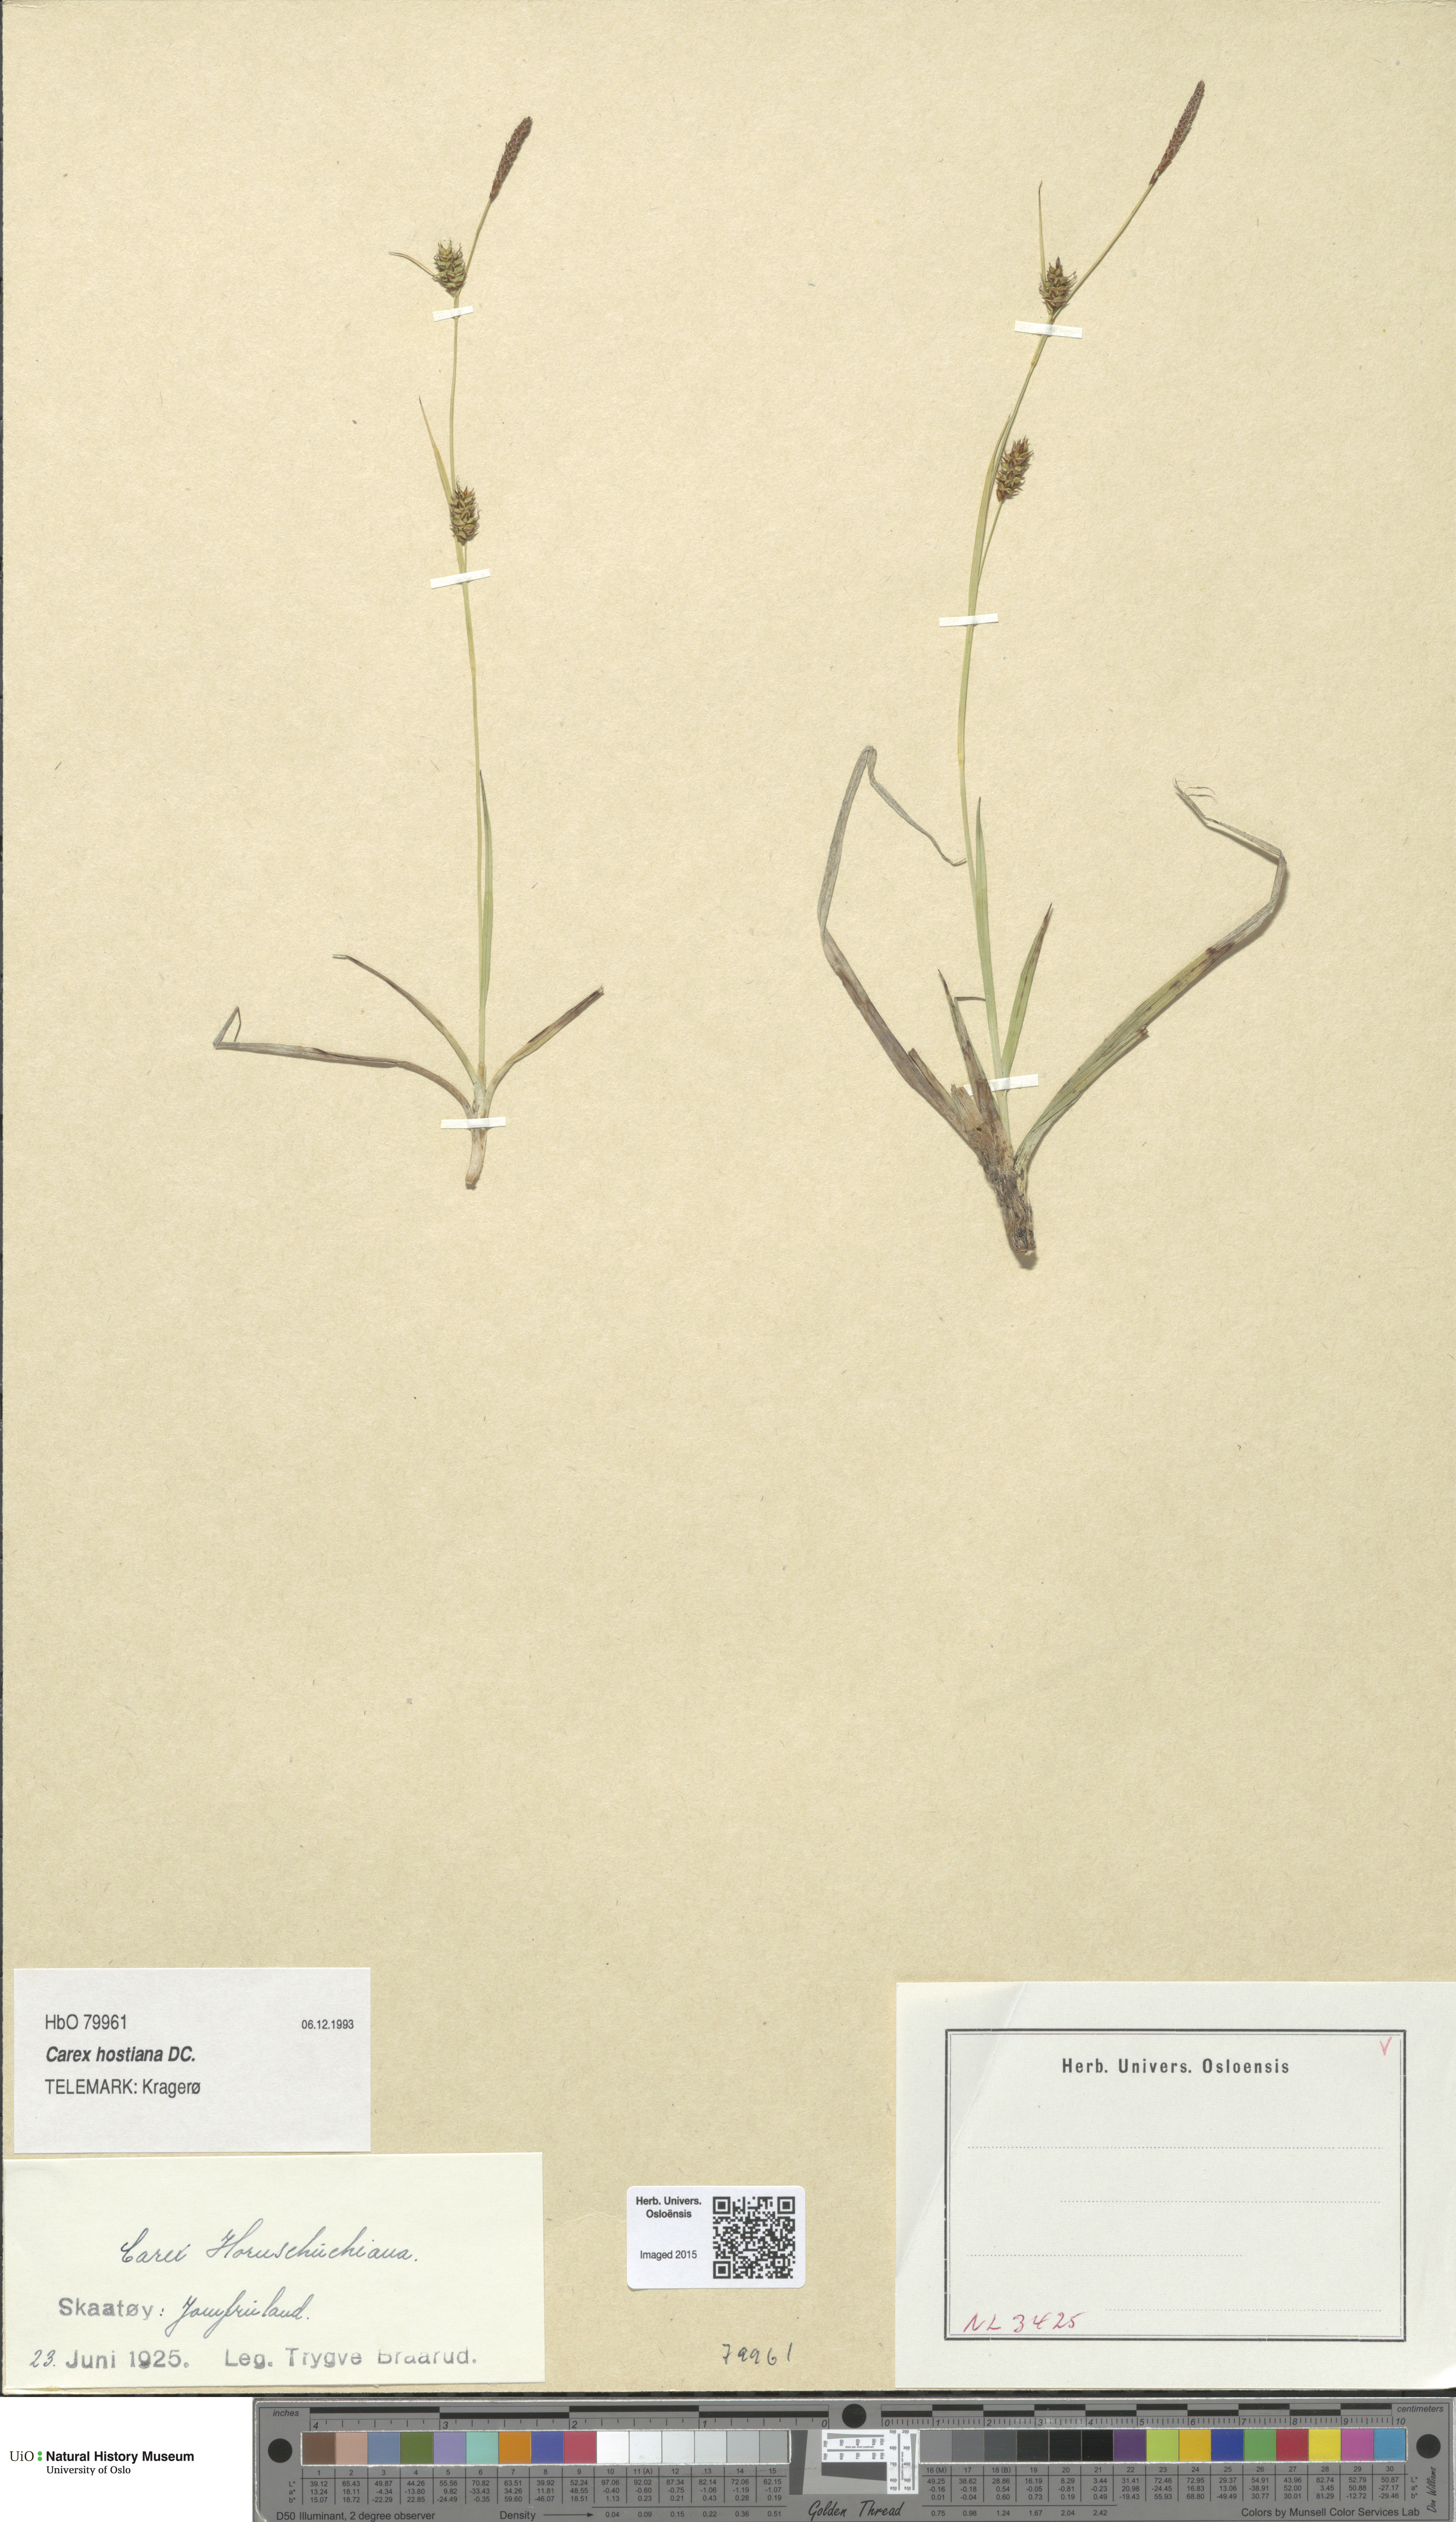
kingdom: Plantae
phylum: Tracheophyta
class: Liliopsida
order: Poales
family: Cyperaceae
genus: Carex
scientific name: Carex hostiana
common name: Tawny sedge
